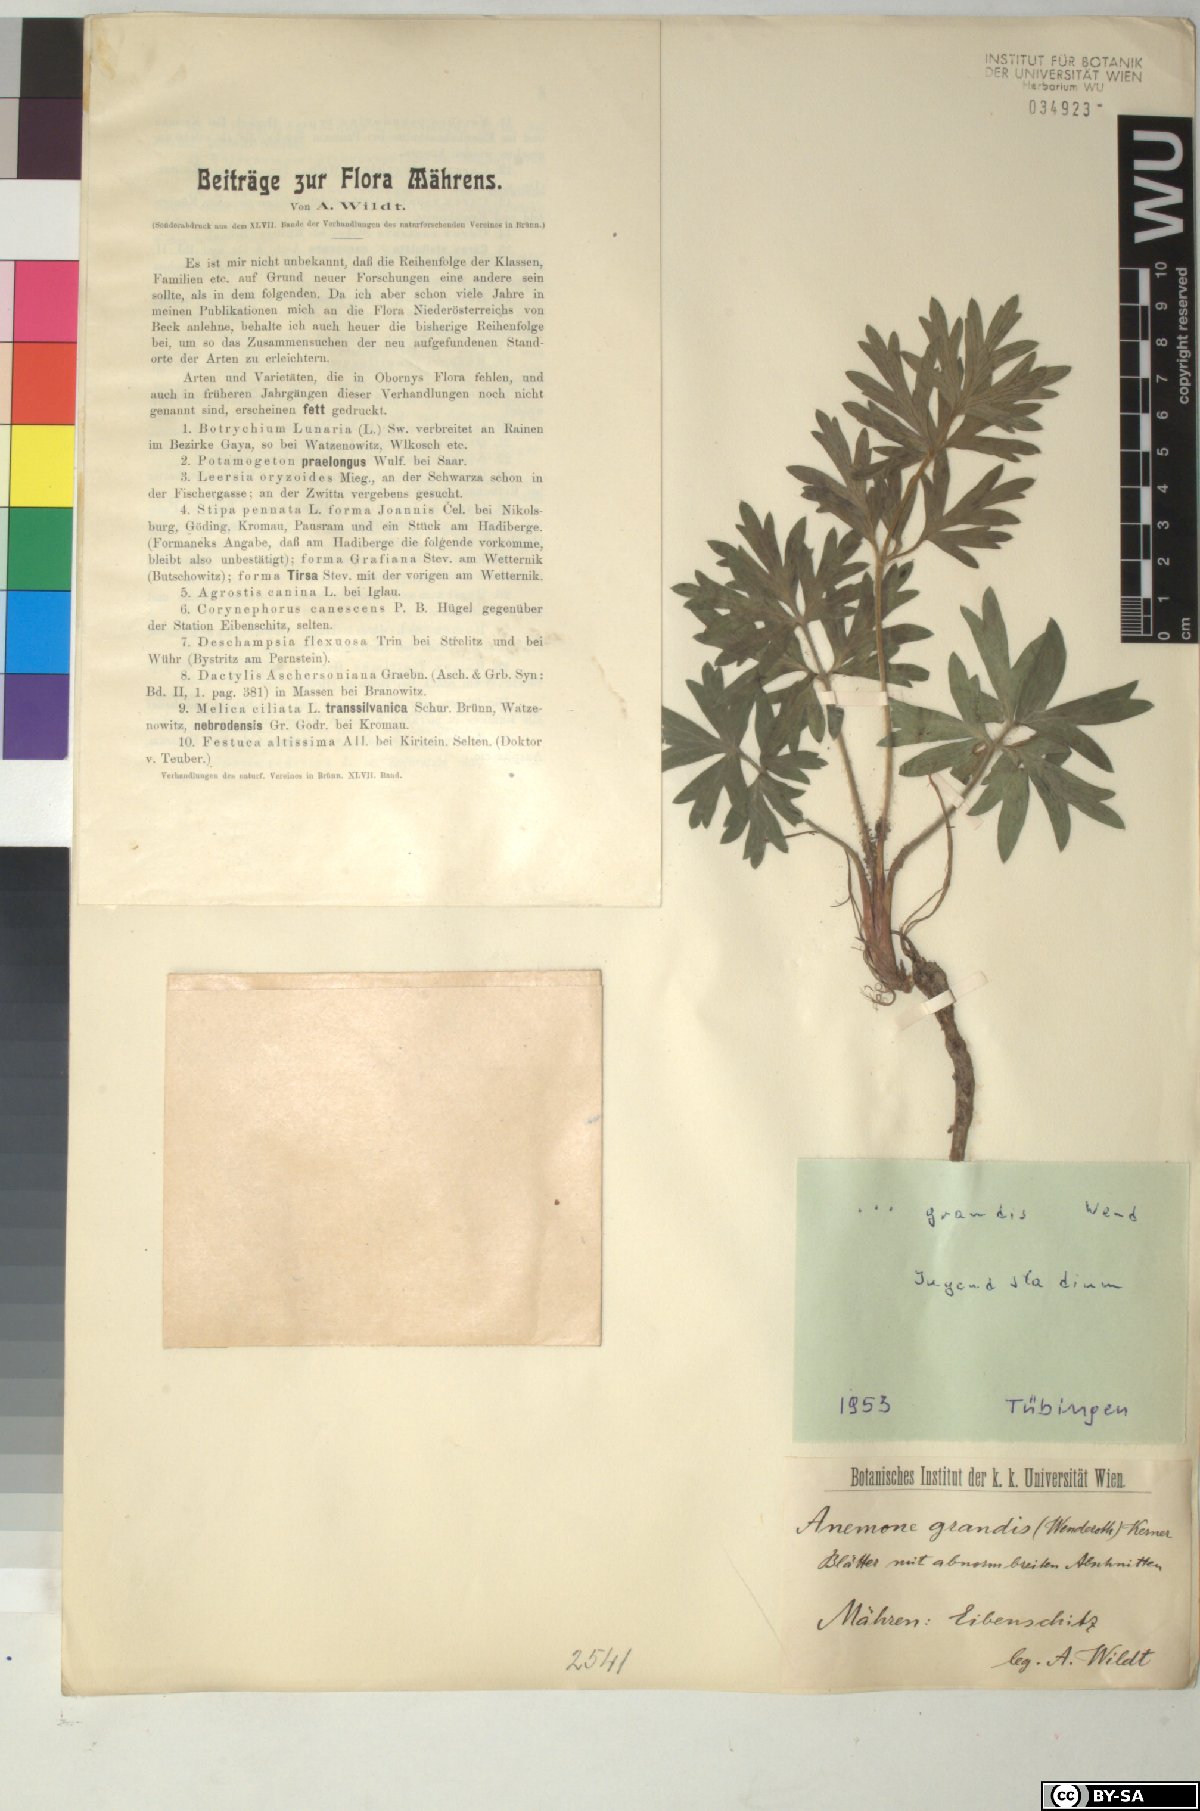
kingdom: Plantae
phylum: Tracheophyta
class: Magnoliopsida
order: Ranunculales
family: Ranunculaceae
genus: Pulsatilla
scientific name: Pulsatilla grandis
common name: Greater pasque flower
